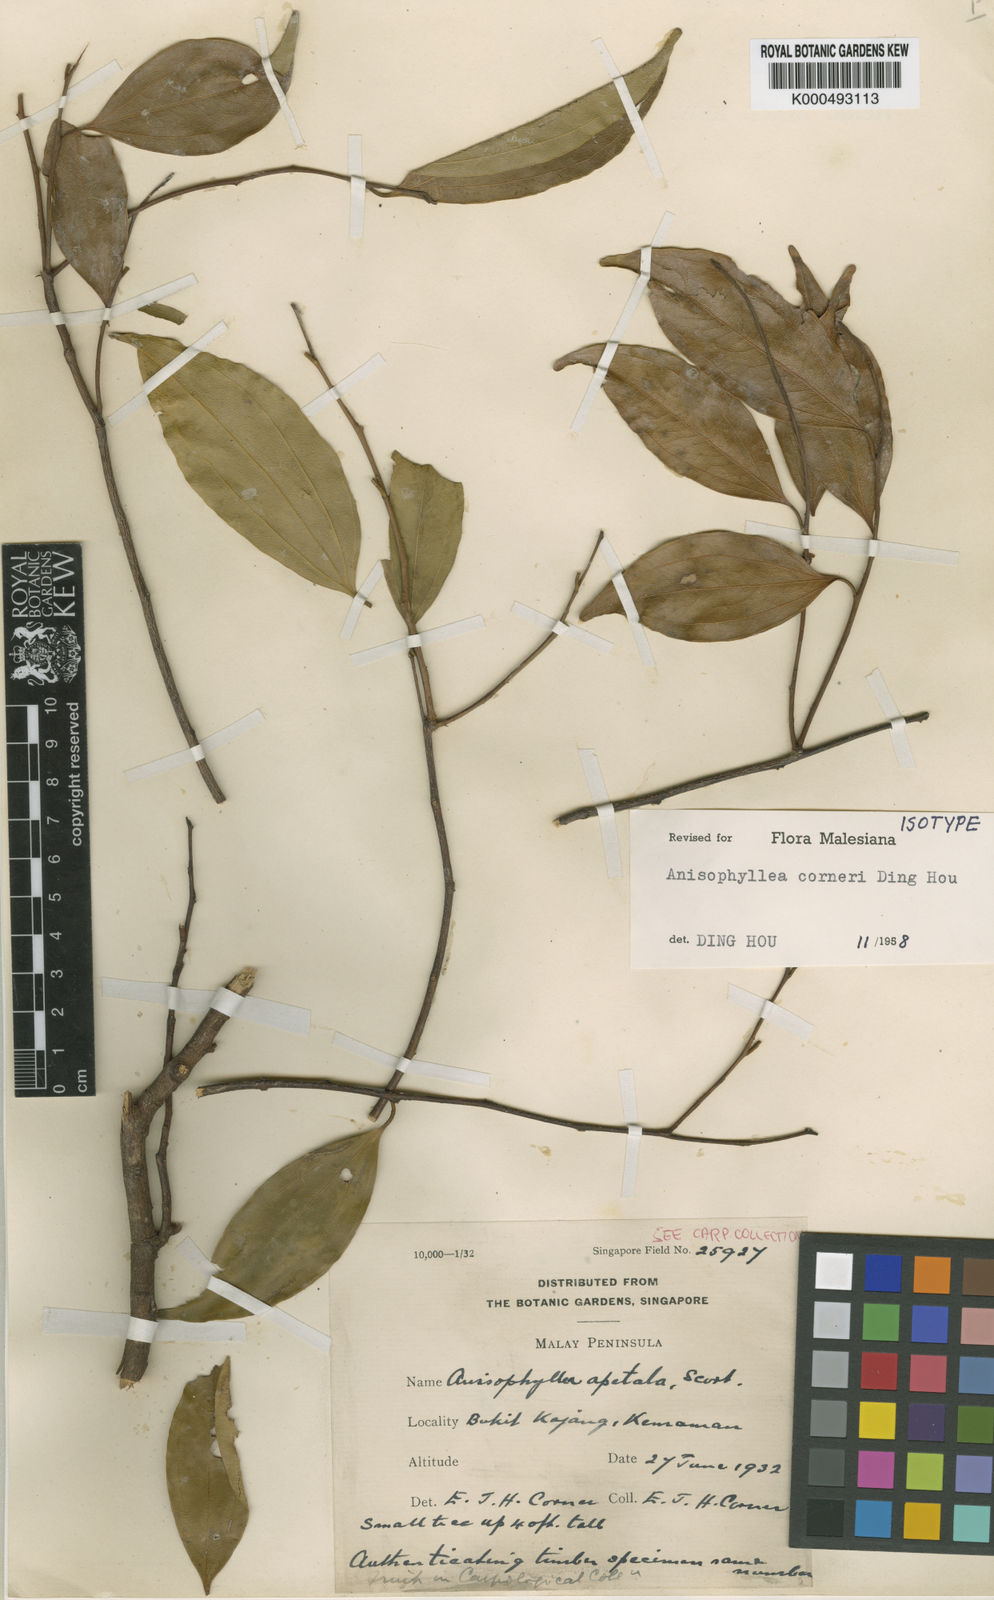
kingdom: Plantae
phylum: Tracheophyta
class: Magnoliopsida
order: Cucurbitales
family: Anisophylleaceae
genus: Anisophyllea
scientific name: Anisophyllea corneri
